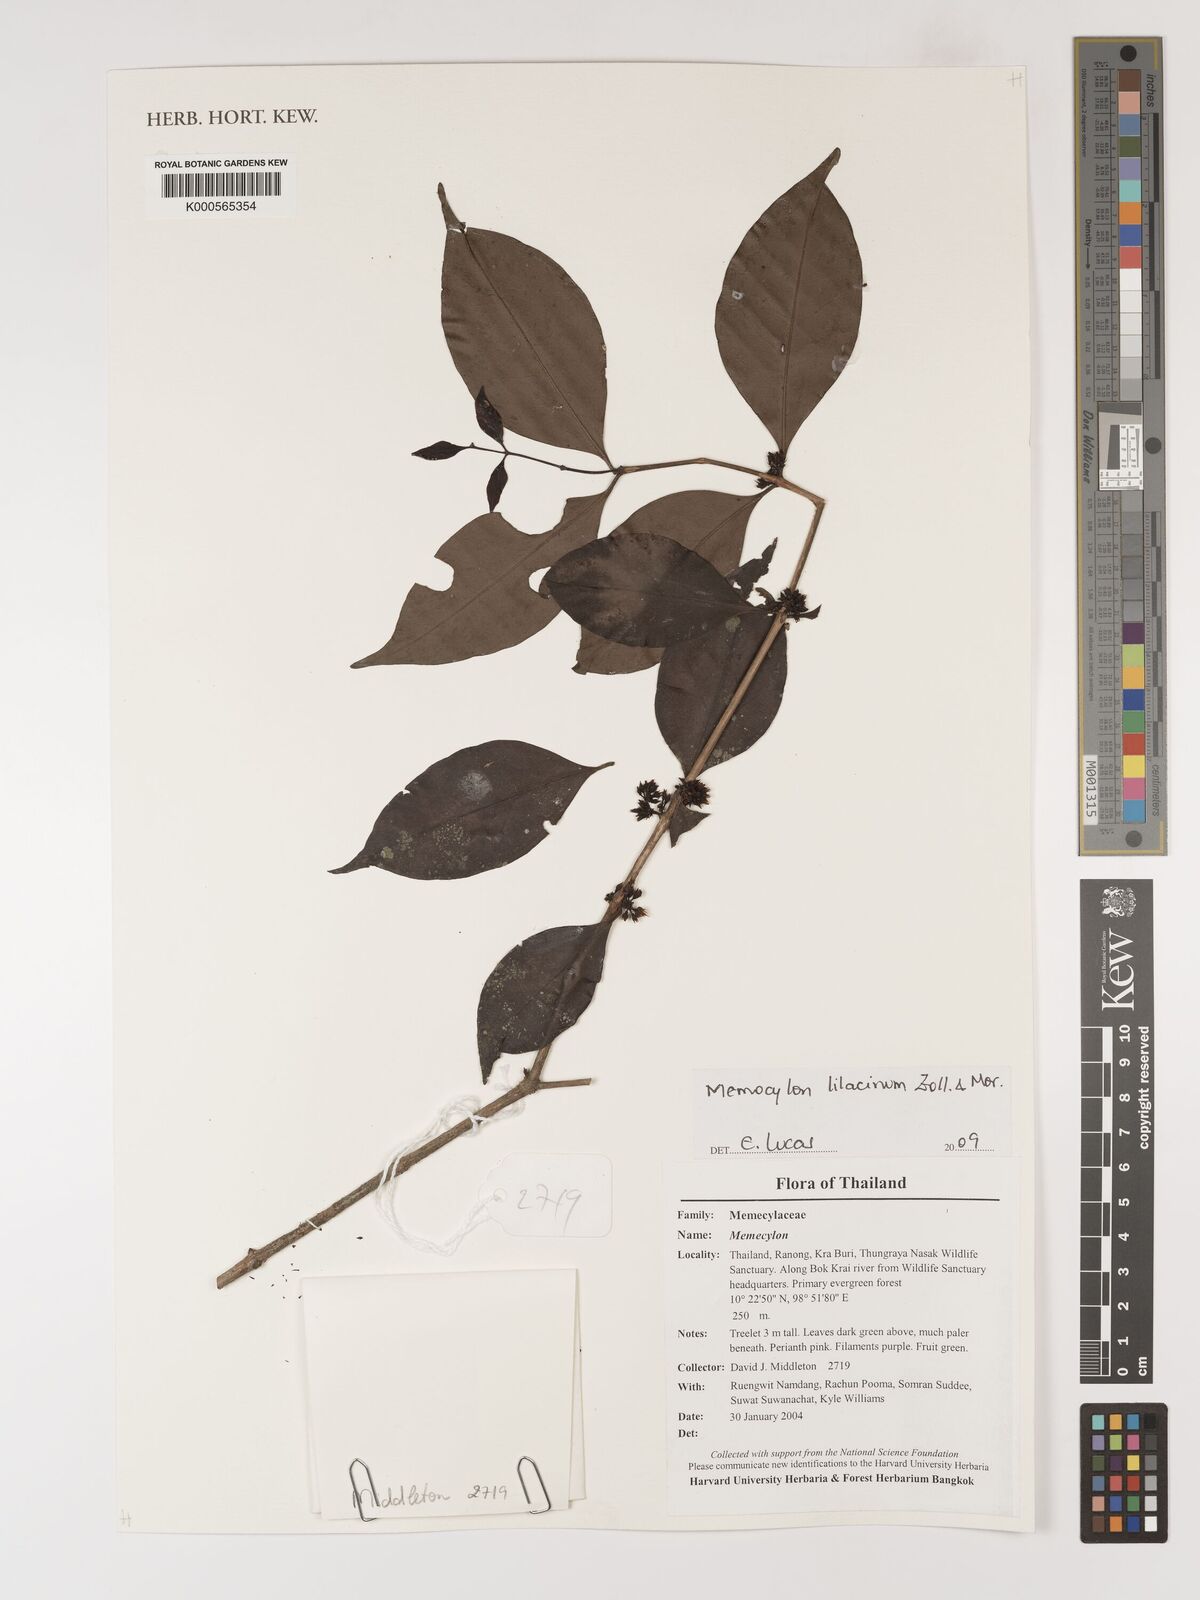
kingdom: Plantae
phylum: Tracheophyta
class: Magnoliopsida
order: Myrtales
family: Melastomataceae
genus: Memecylon
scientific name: Memecylon lilacinum
